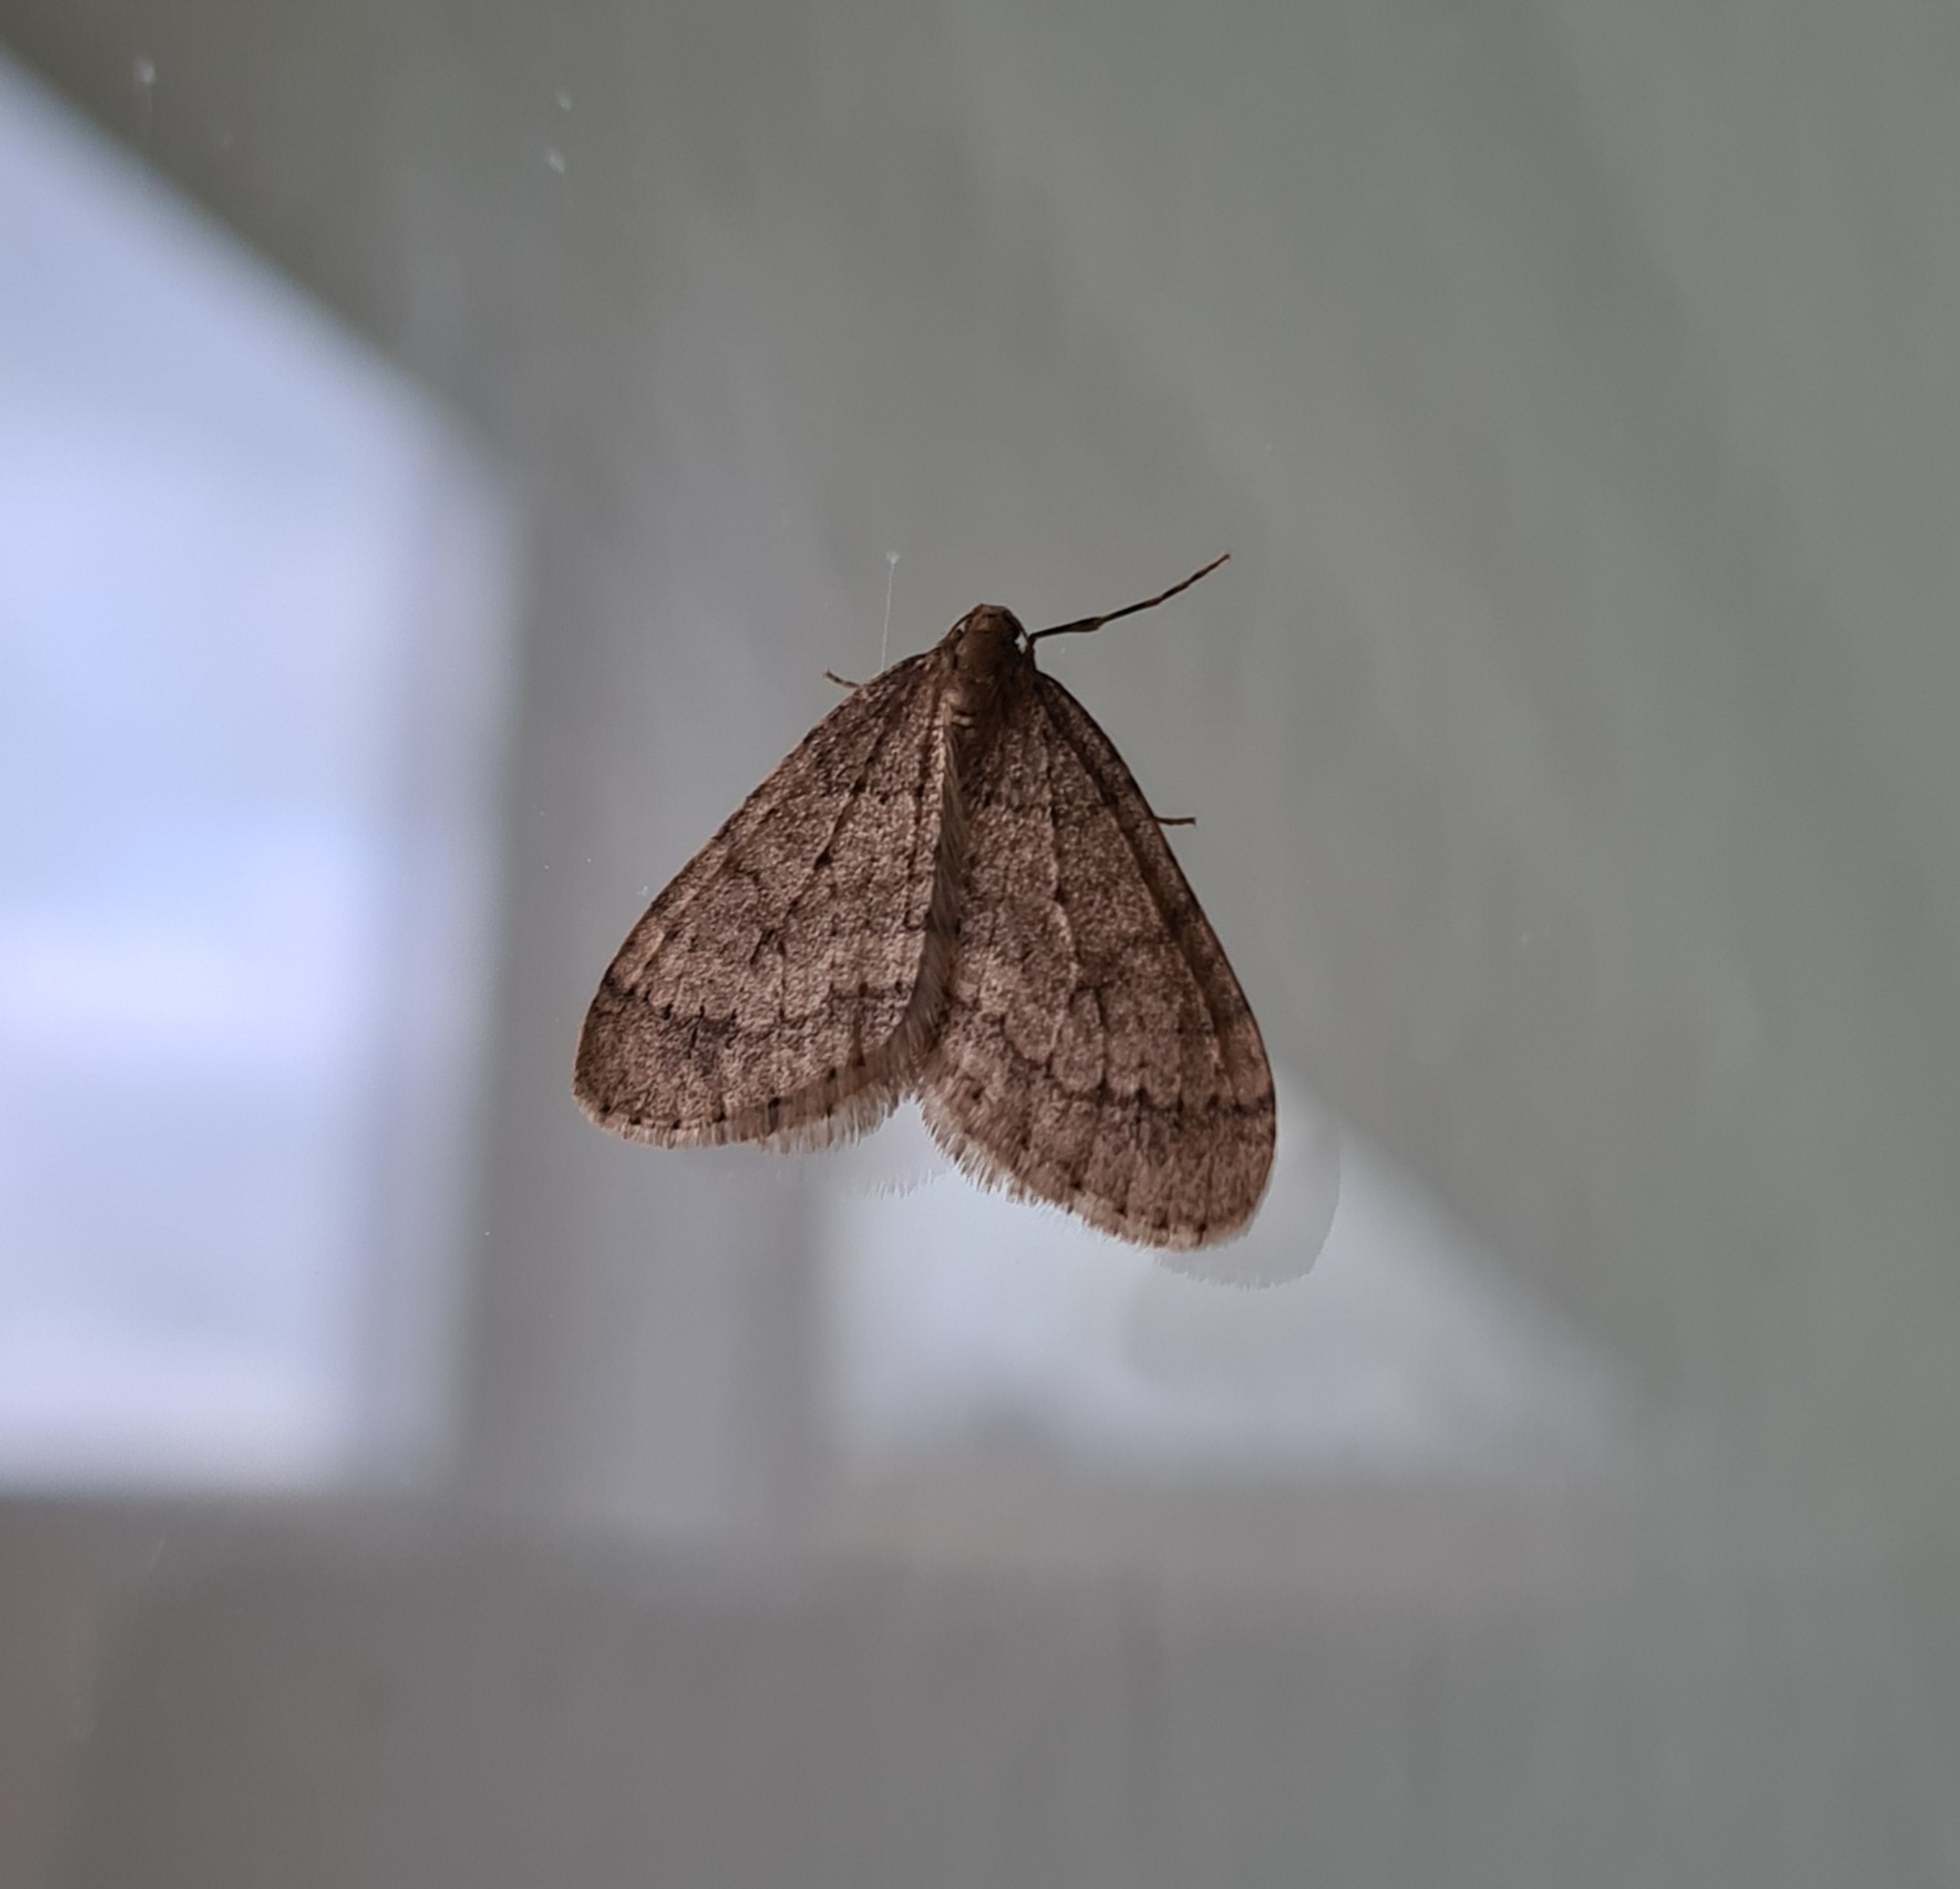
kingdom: Animalia
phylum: Arthropoda
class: Insecta
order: Lepidoptera
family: Geometridae
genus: Operophtera
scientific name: Operophtera brumata
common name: Lille frostmåler
